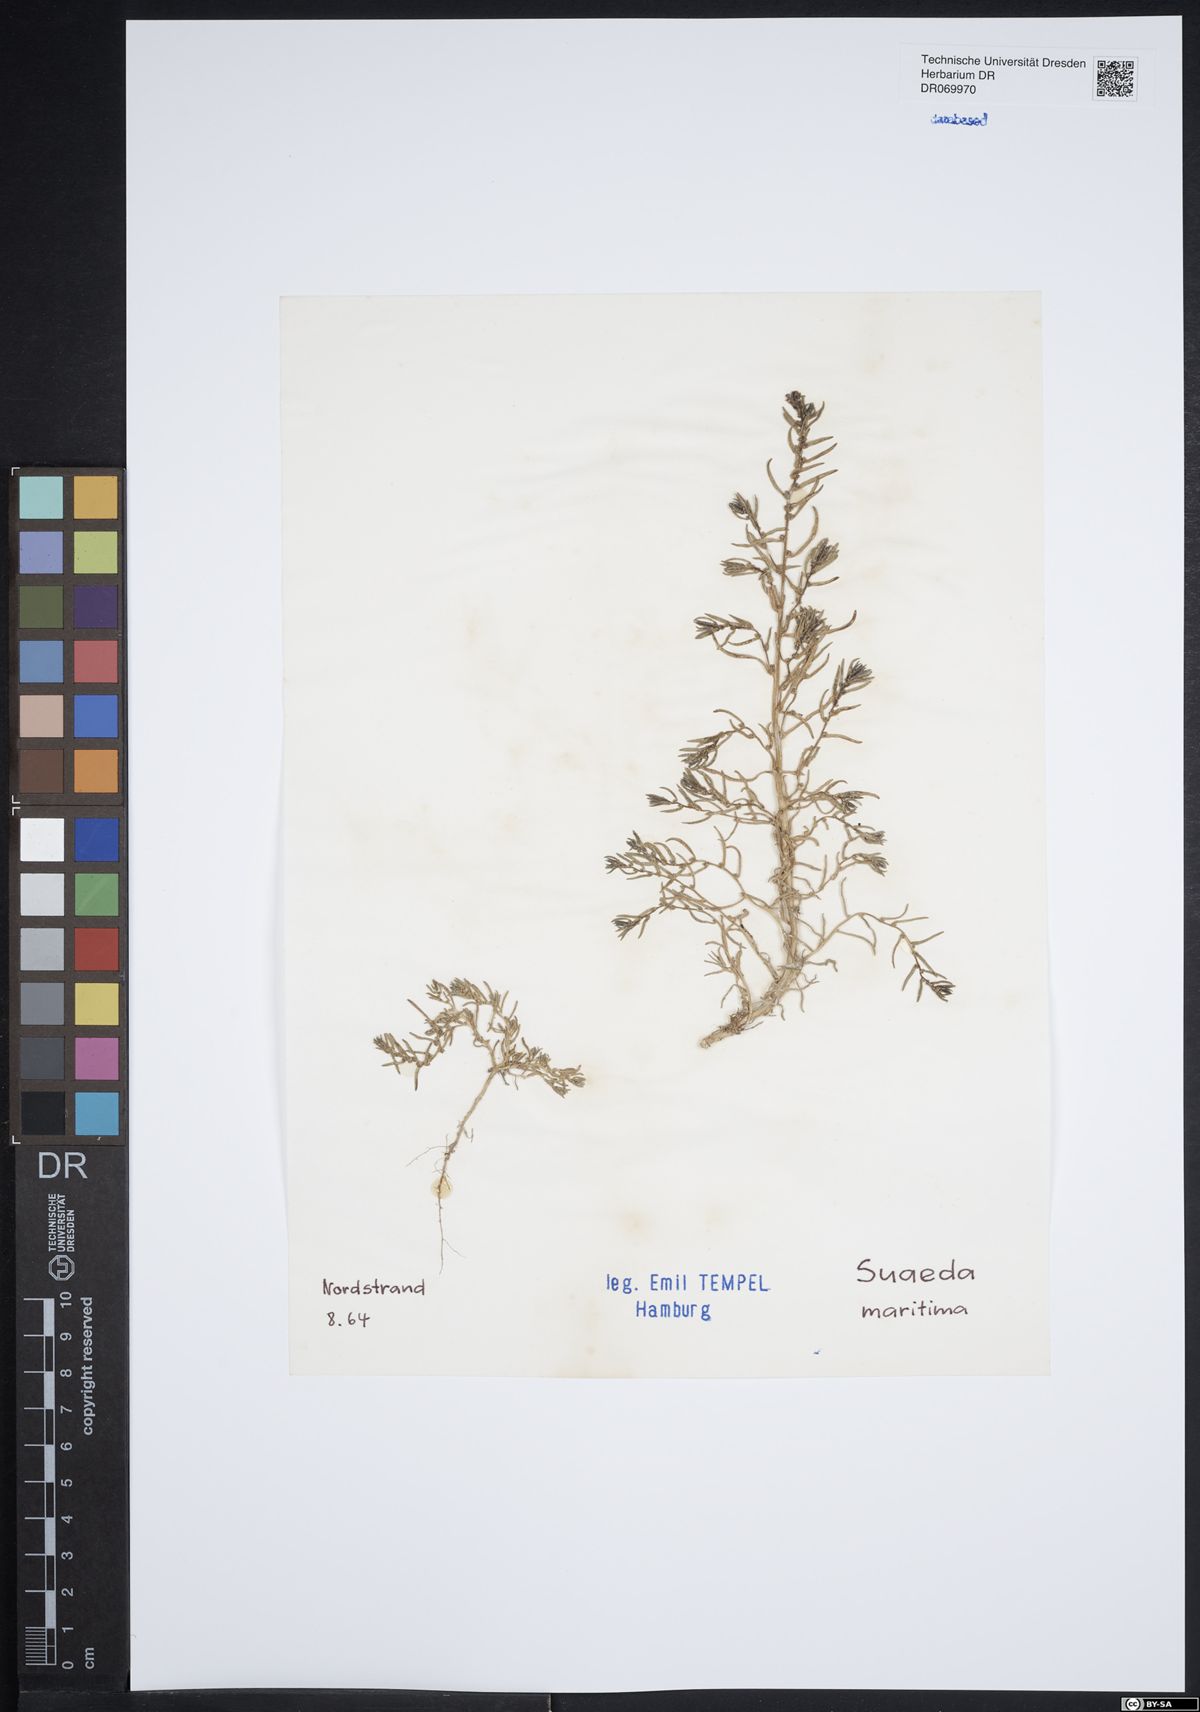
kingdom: Plantae
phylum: Tracheophyta
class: Magnoliopsida
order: Caryophyllales
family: Amaranthaceae
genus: Suaeda
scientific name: Suaeda maritima
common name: Annual sea-blite
